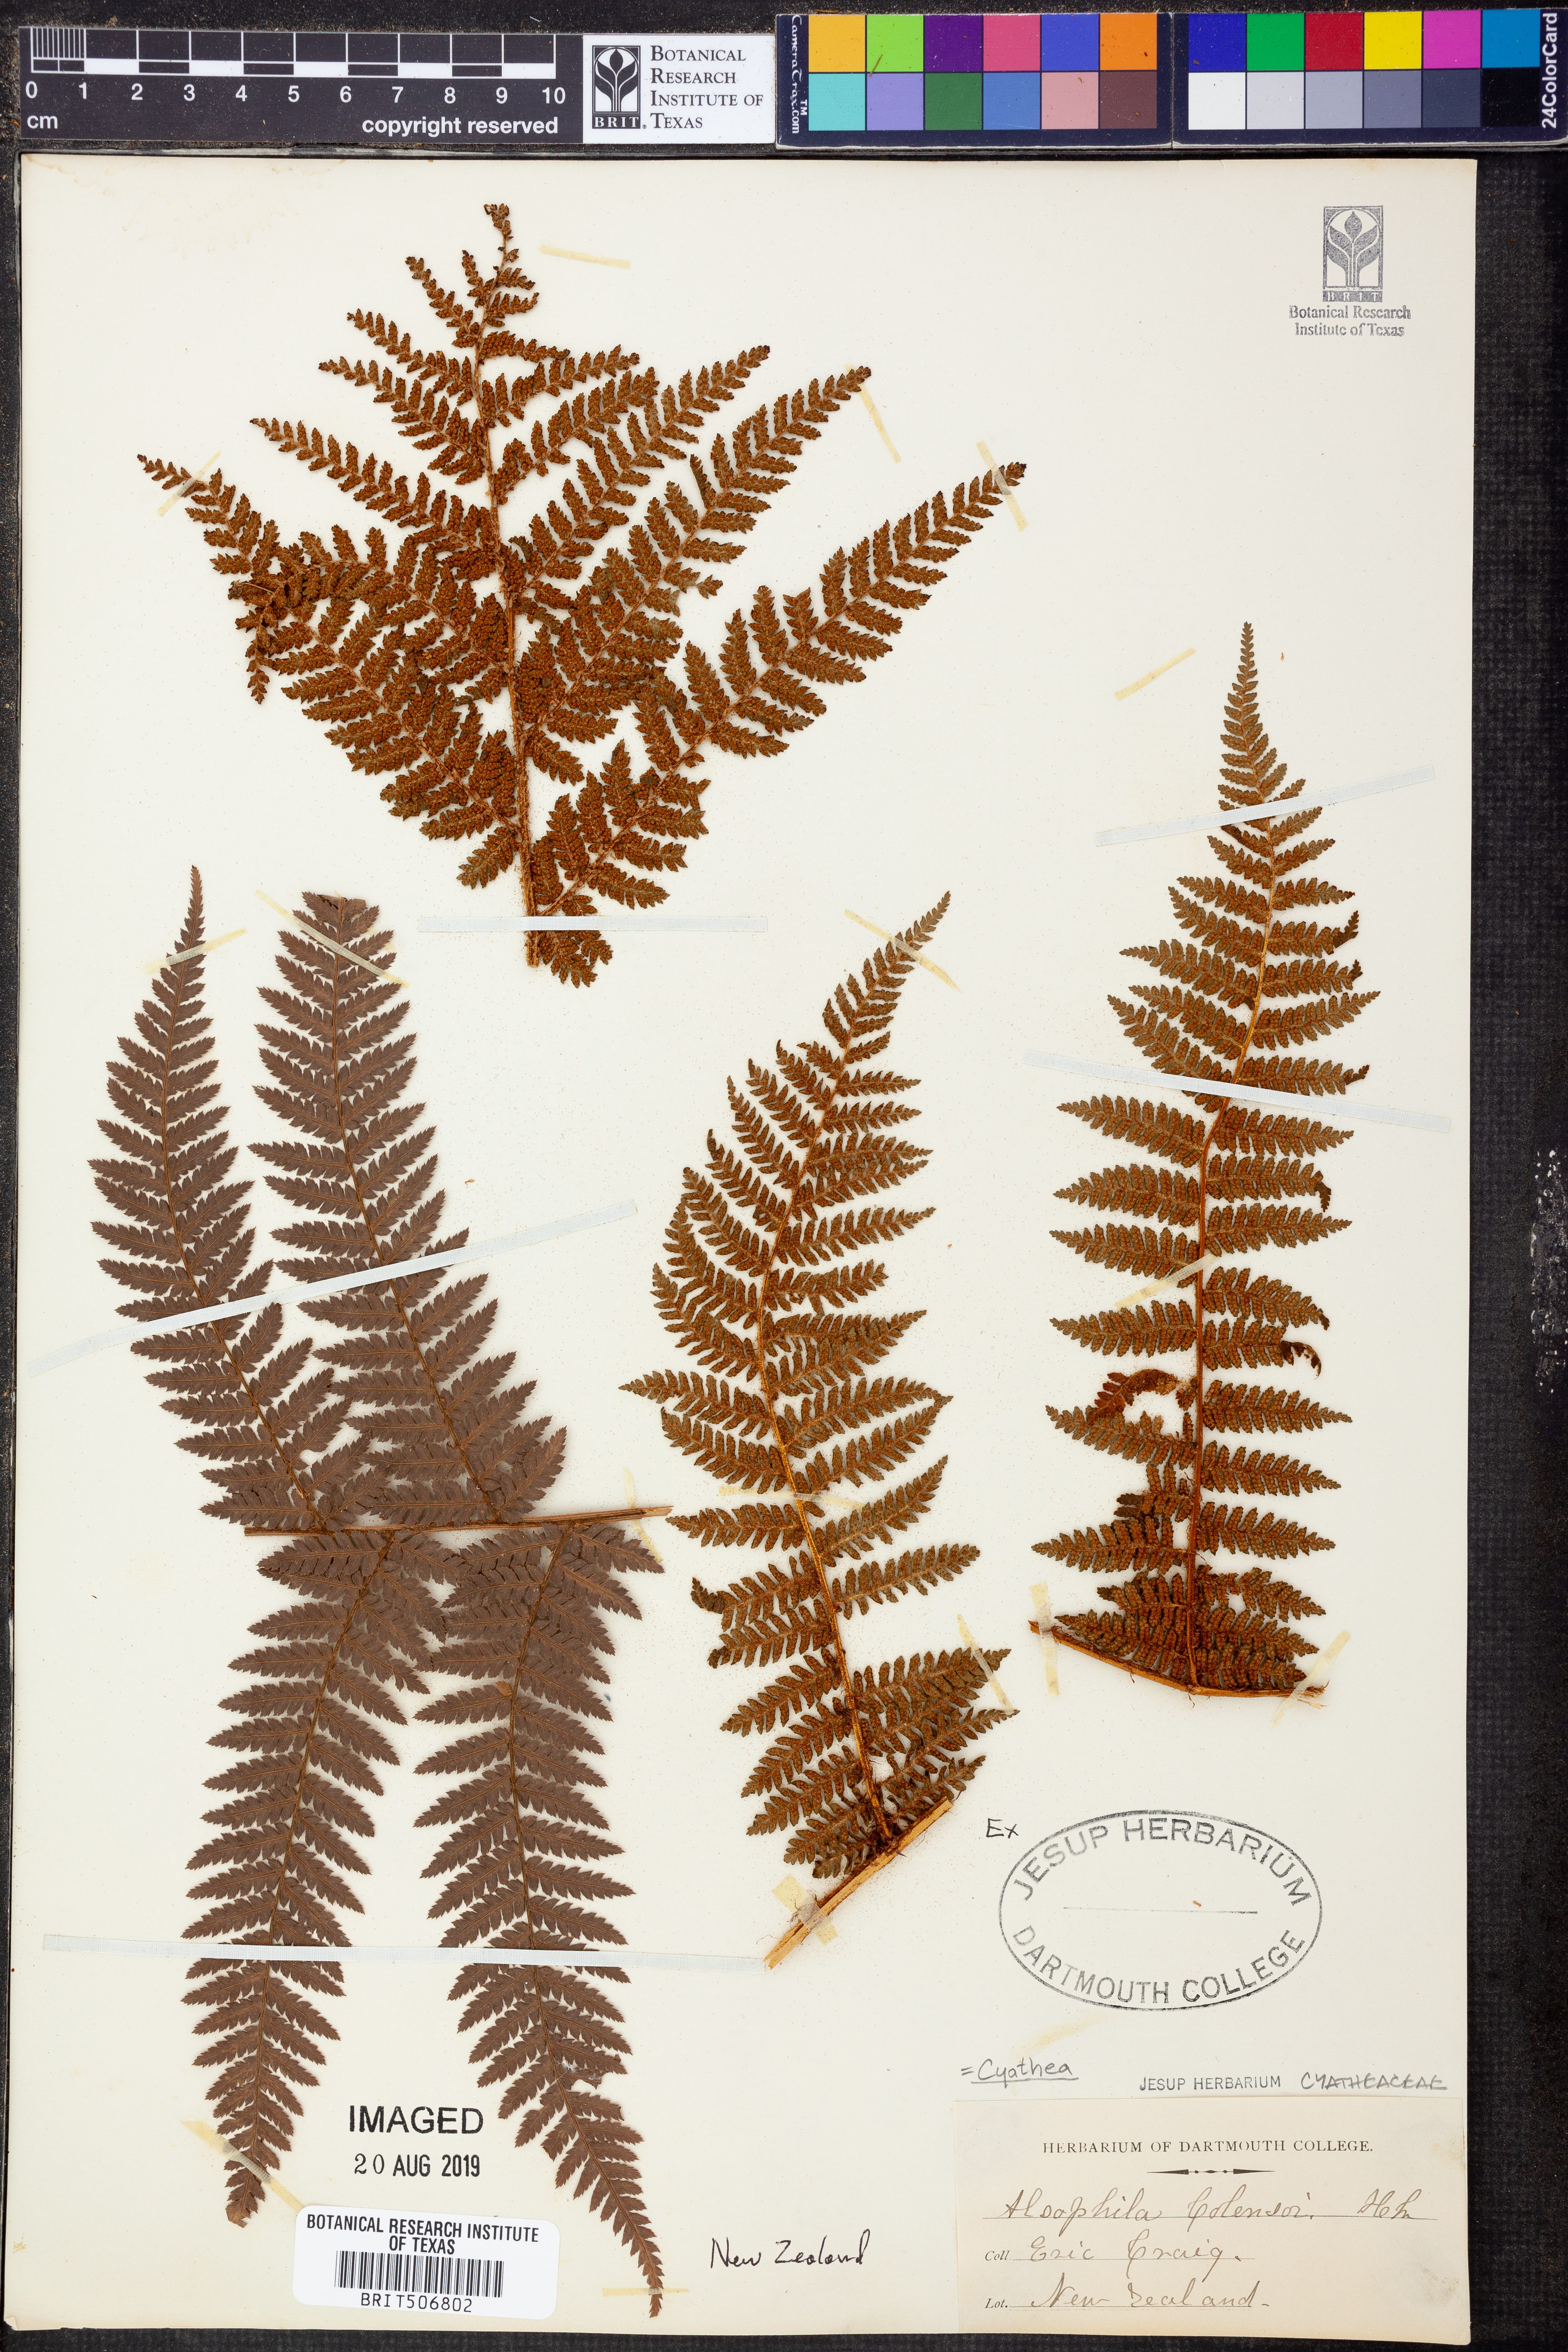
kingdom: Plantae
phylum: Tracheophyta
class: Polypodiopsida
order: Cyatheales
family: Cyatheaceae
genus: Alsophila
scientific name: Alsophila colensoi
